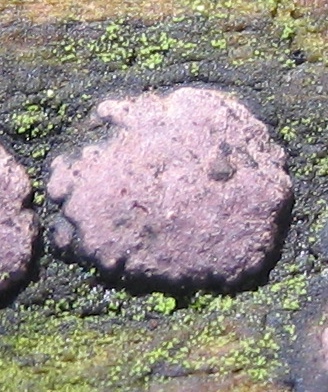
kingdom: Fungi
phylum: Ascomycota
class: Sordariomycetes
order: Xylariales
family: Hypoxylaceae
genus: Hypoxylon
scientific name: Hypoxylon fuscum
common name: kegleformet kulbær
